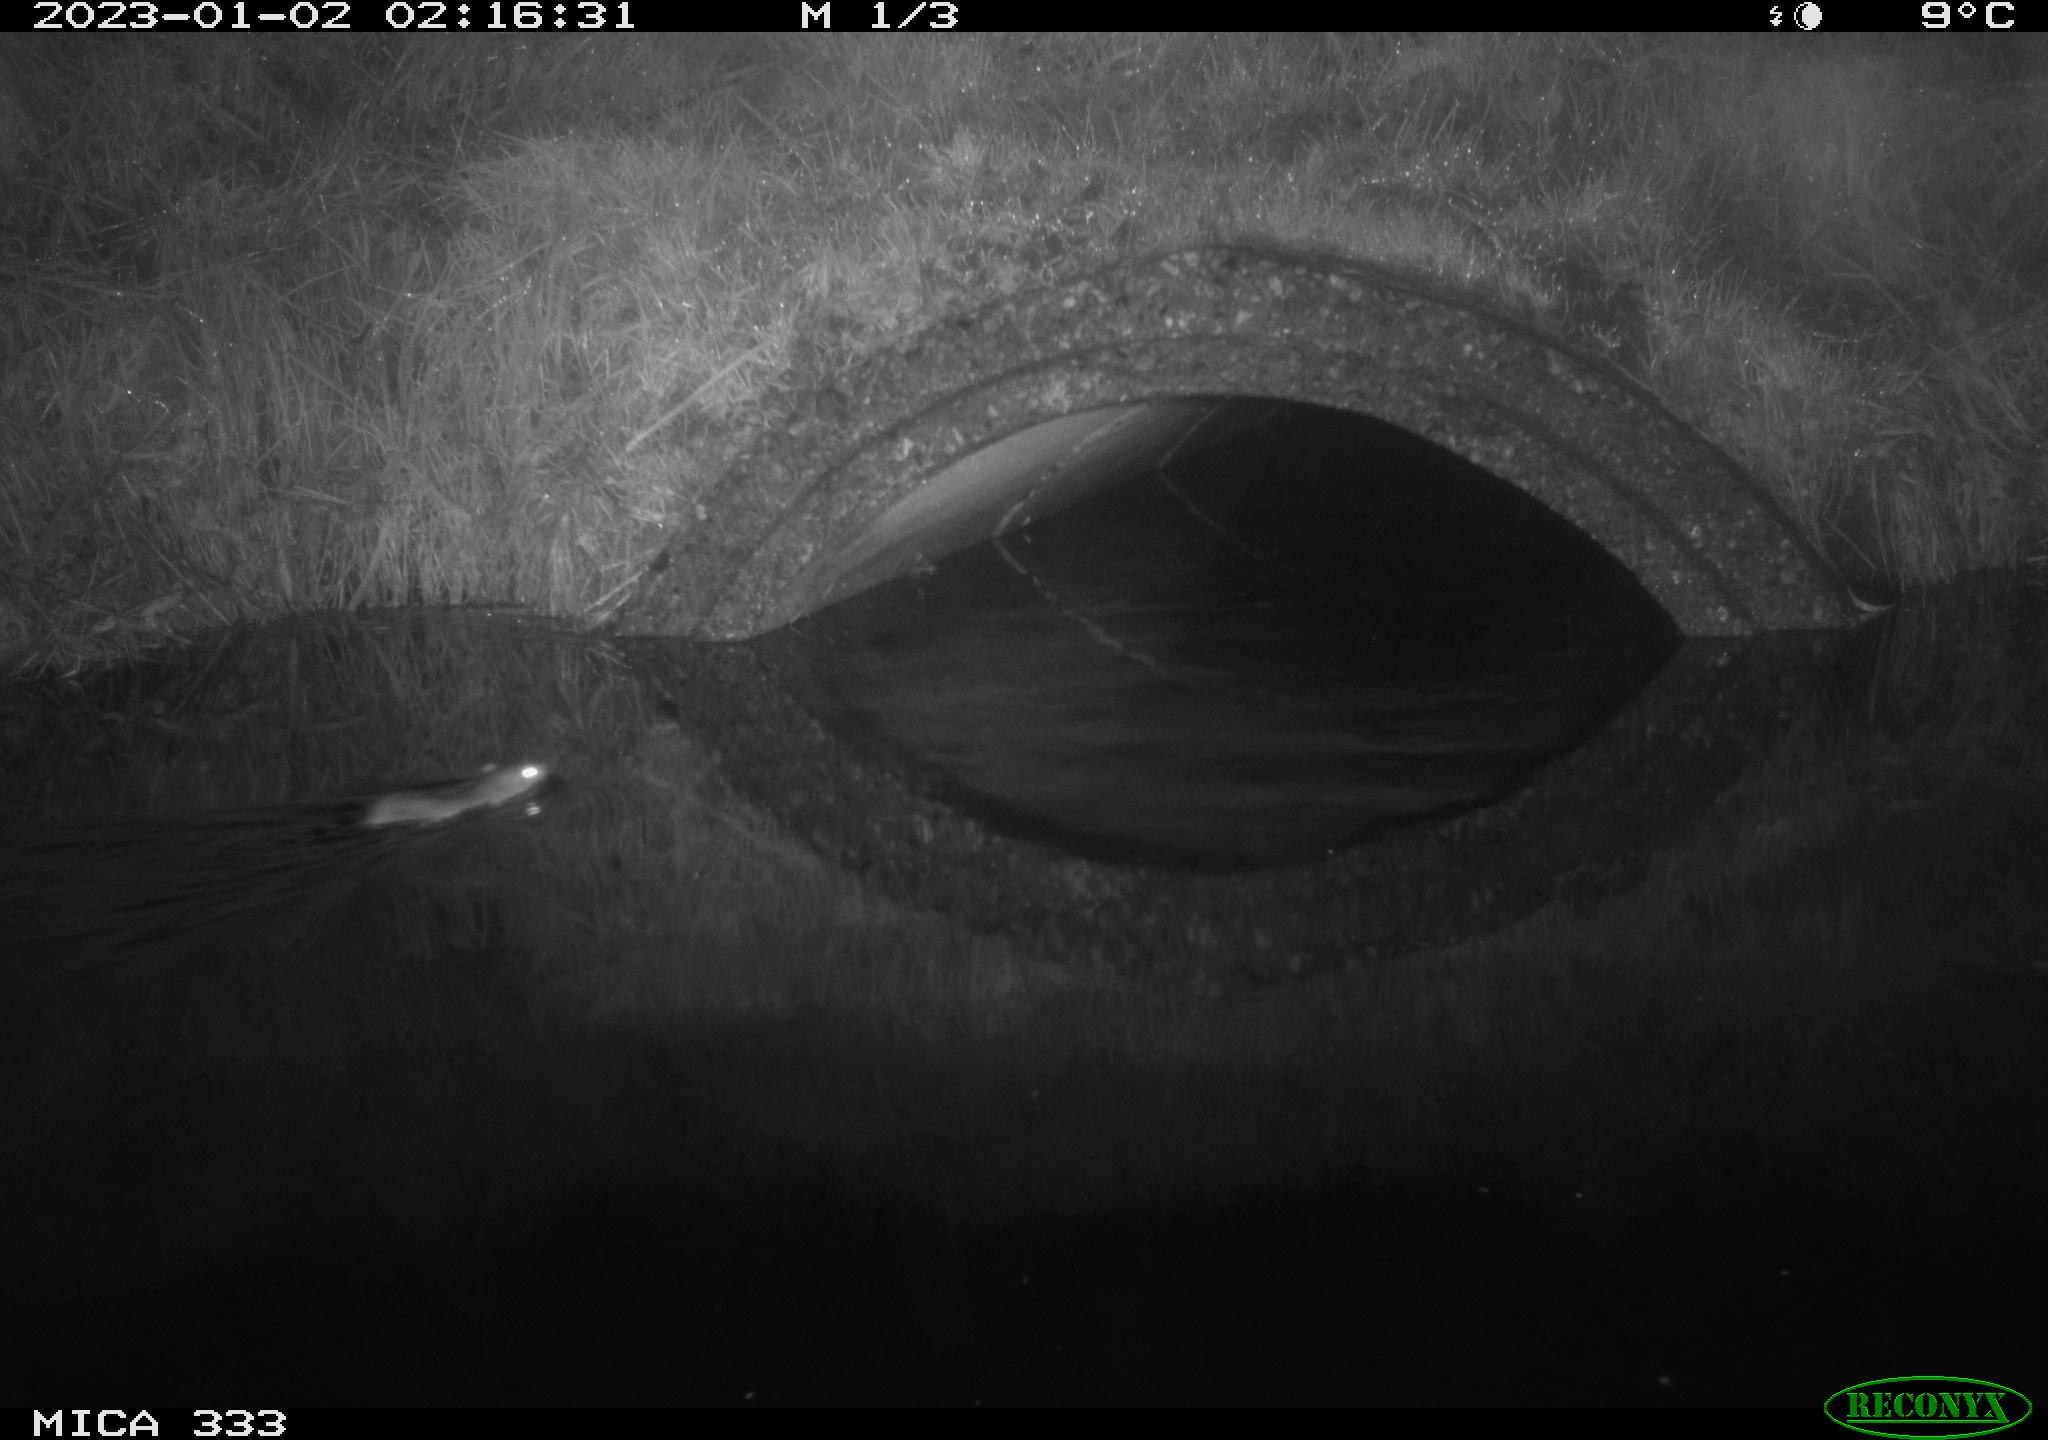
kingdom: Animalia
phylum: Chordata
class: Mammalia
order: Rodentia
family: Muridae
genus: Rattus
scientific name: Rattus norvegicus
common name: Brown rat
